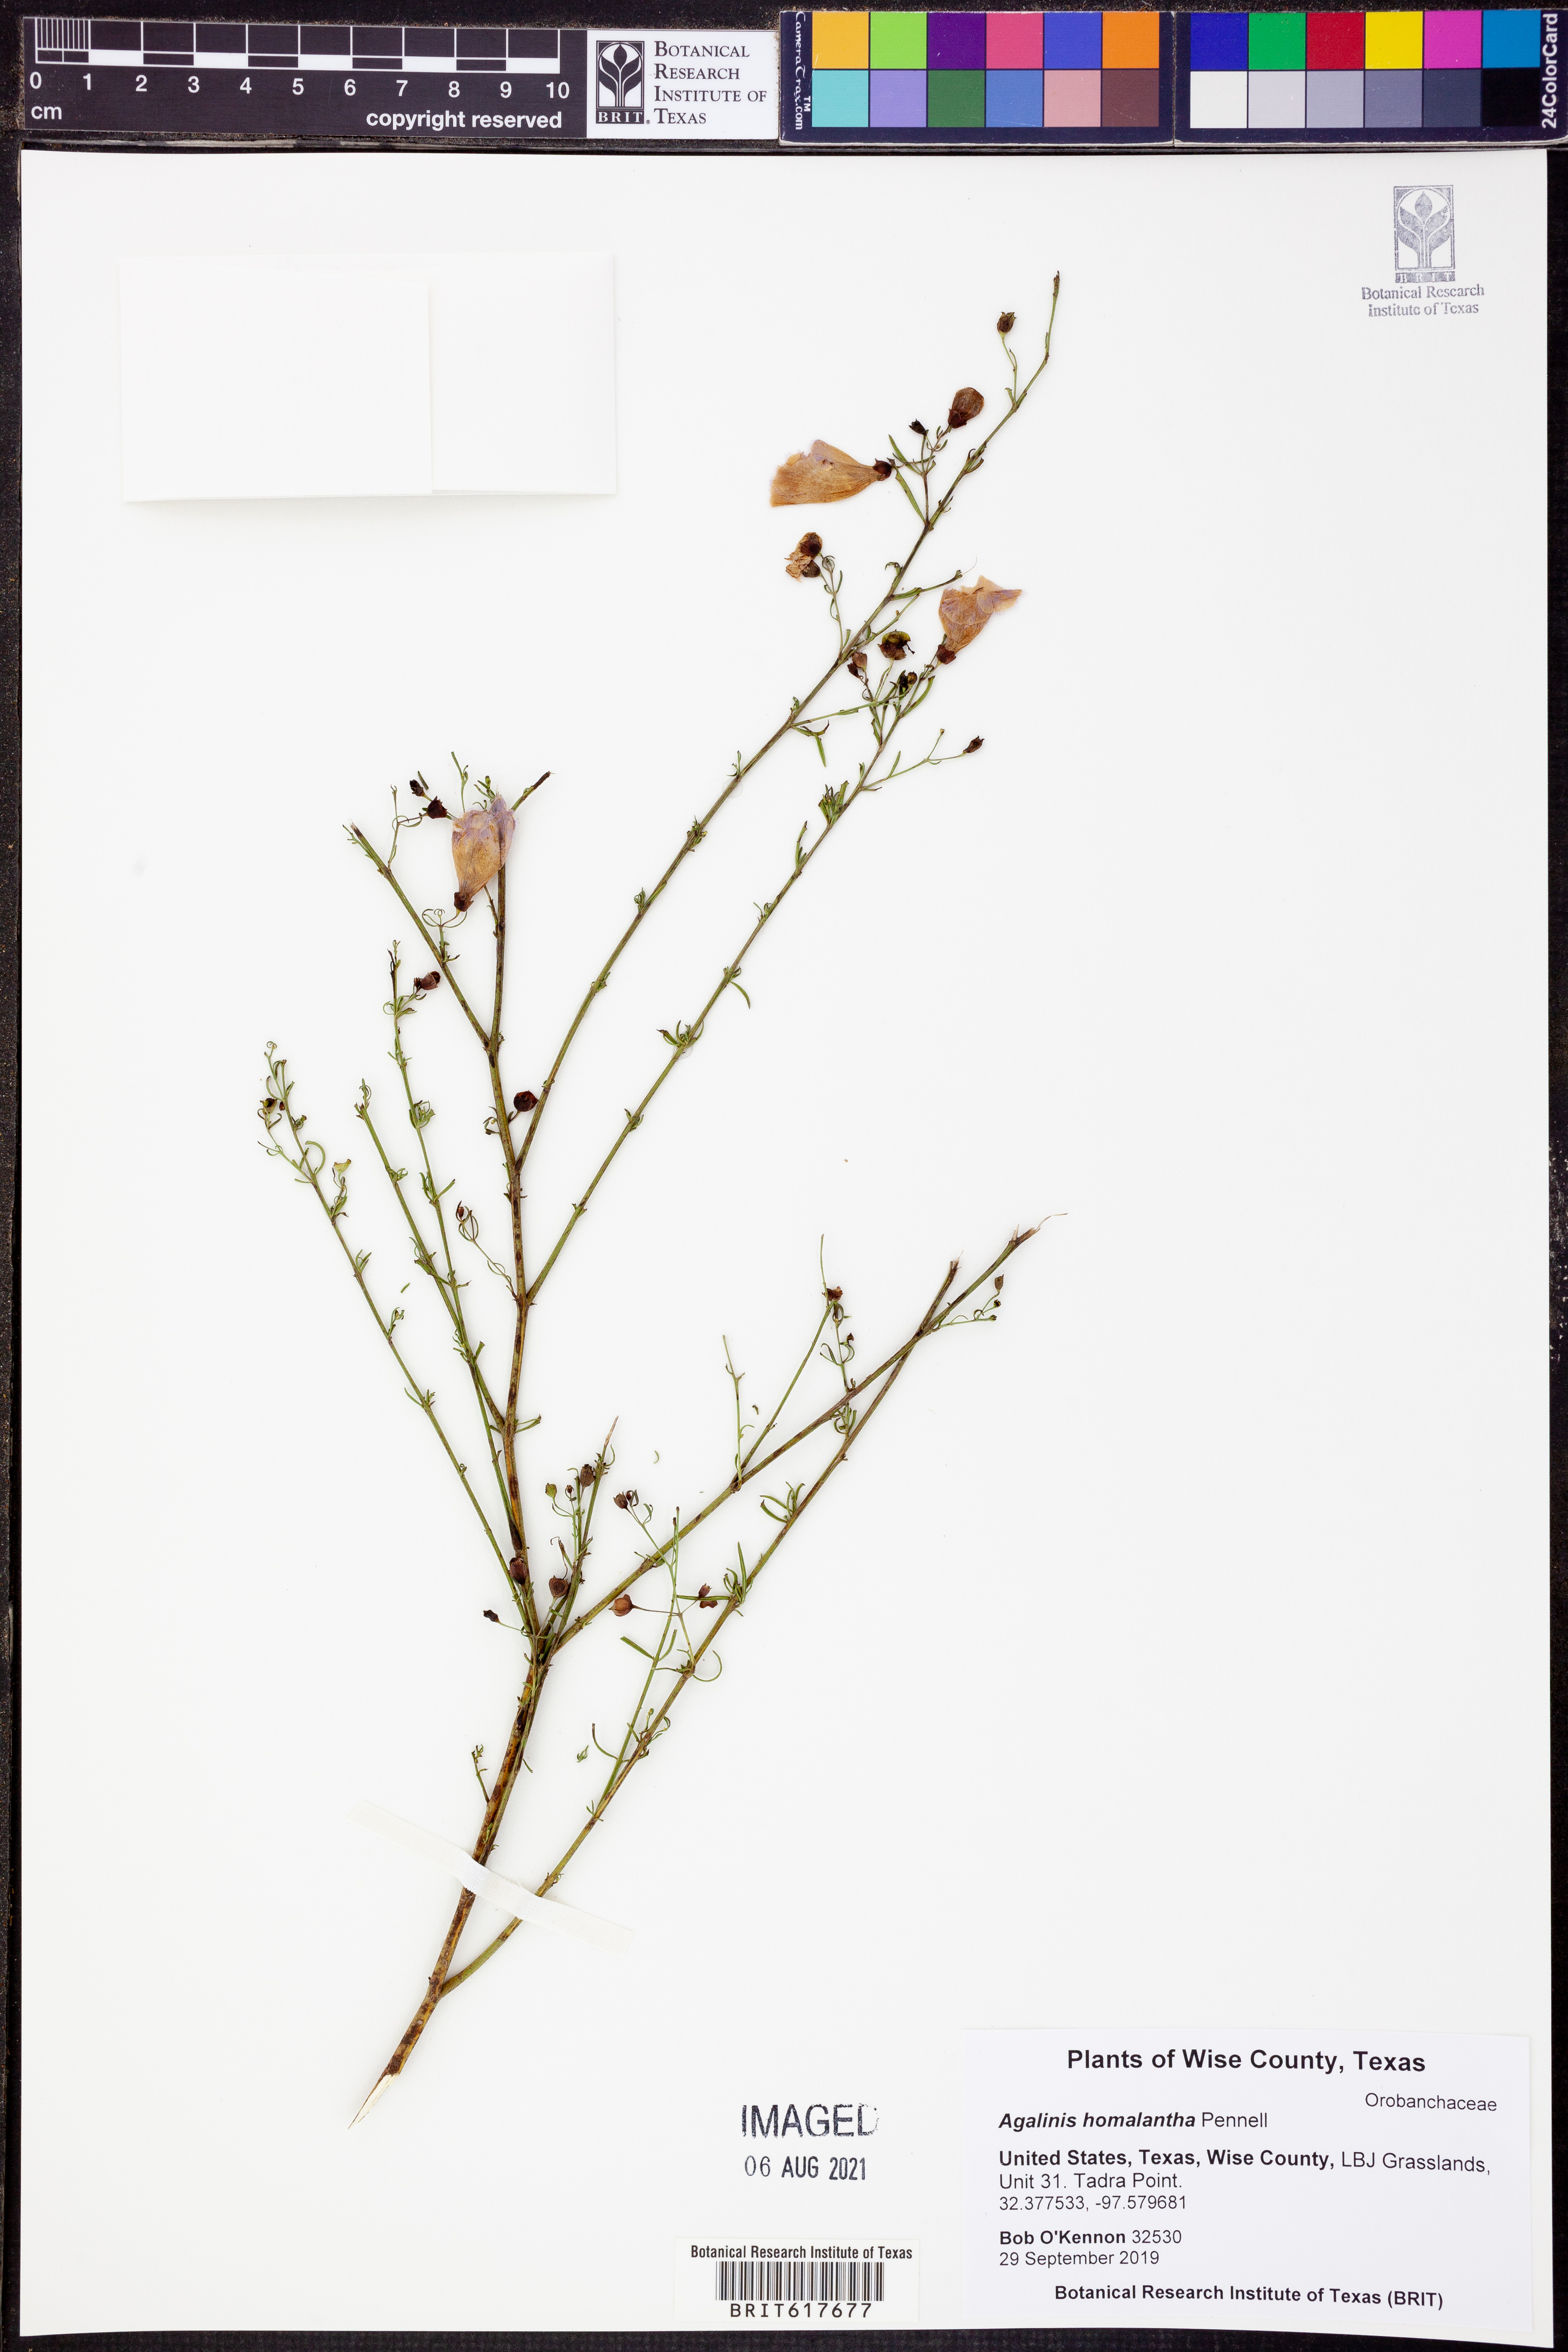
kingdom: Plantae
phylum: Tracheophyta
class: Magnoliopsida
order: Lamiales
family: Orobanchaceae
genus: Agalinis
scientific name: Agalinis homalantha
